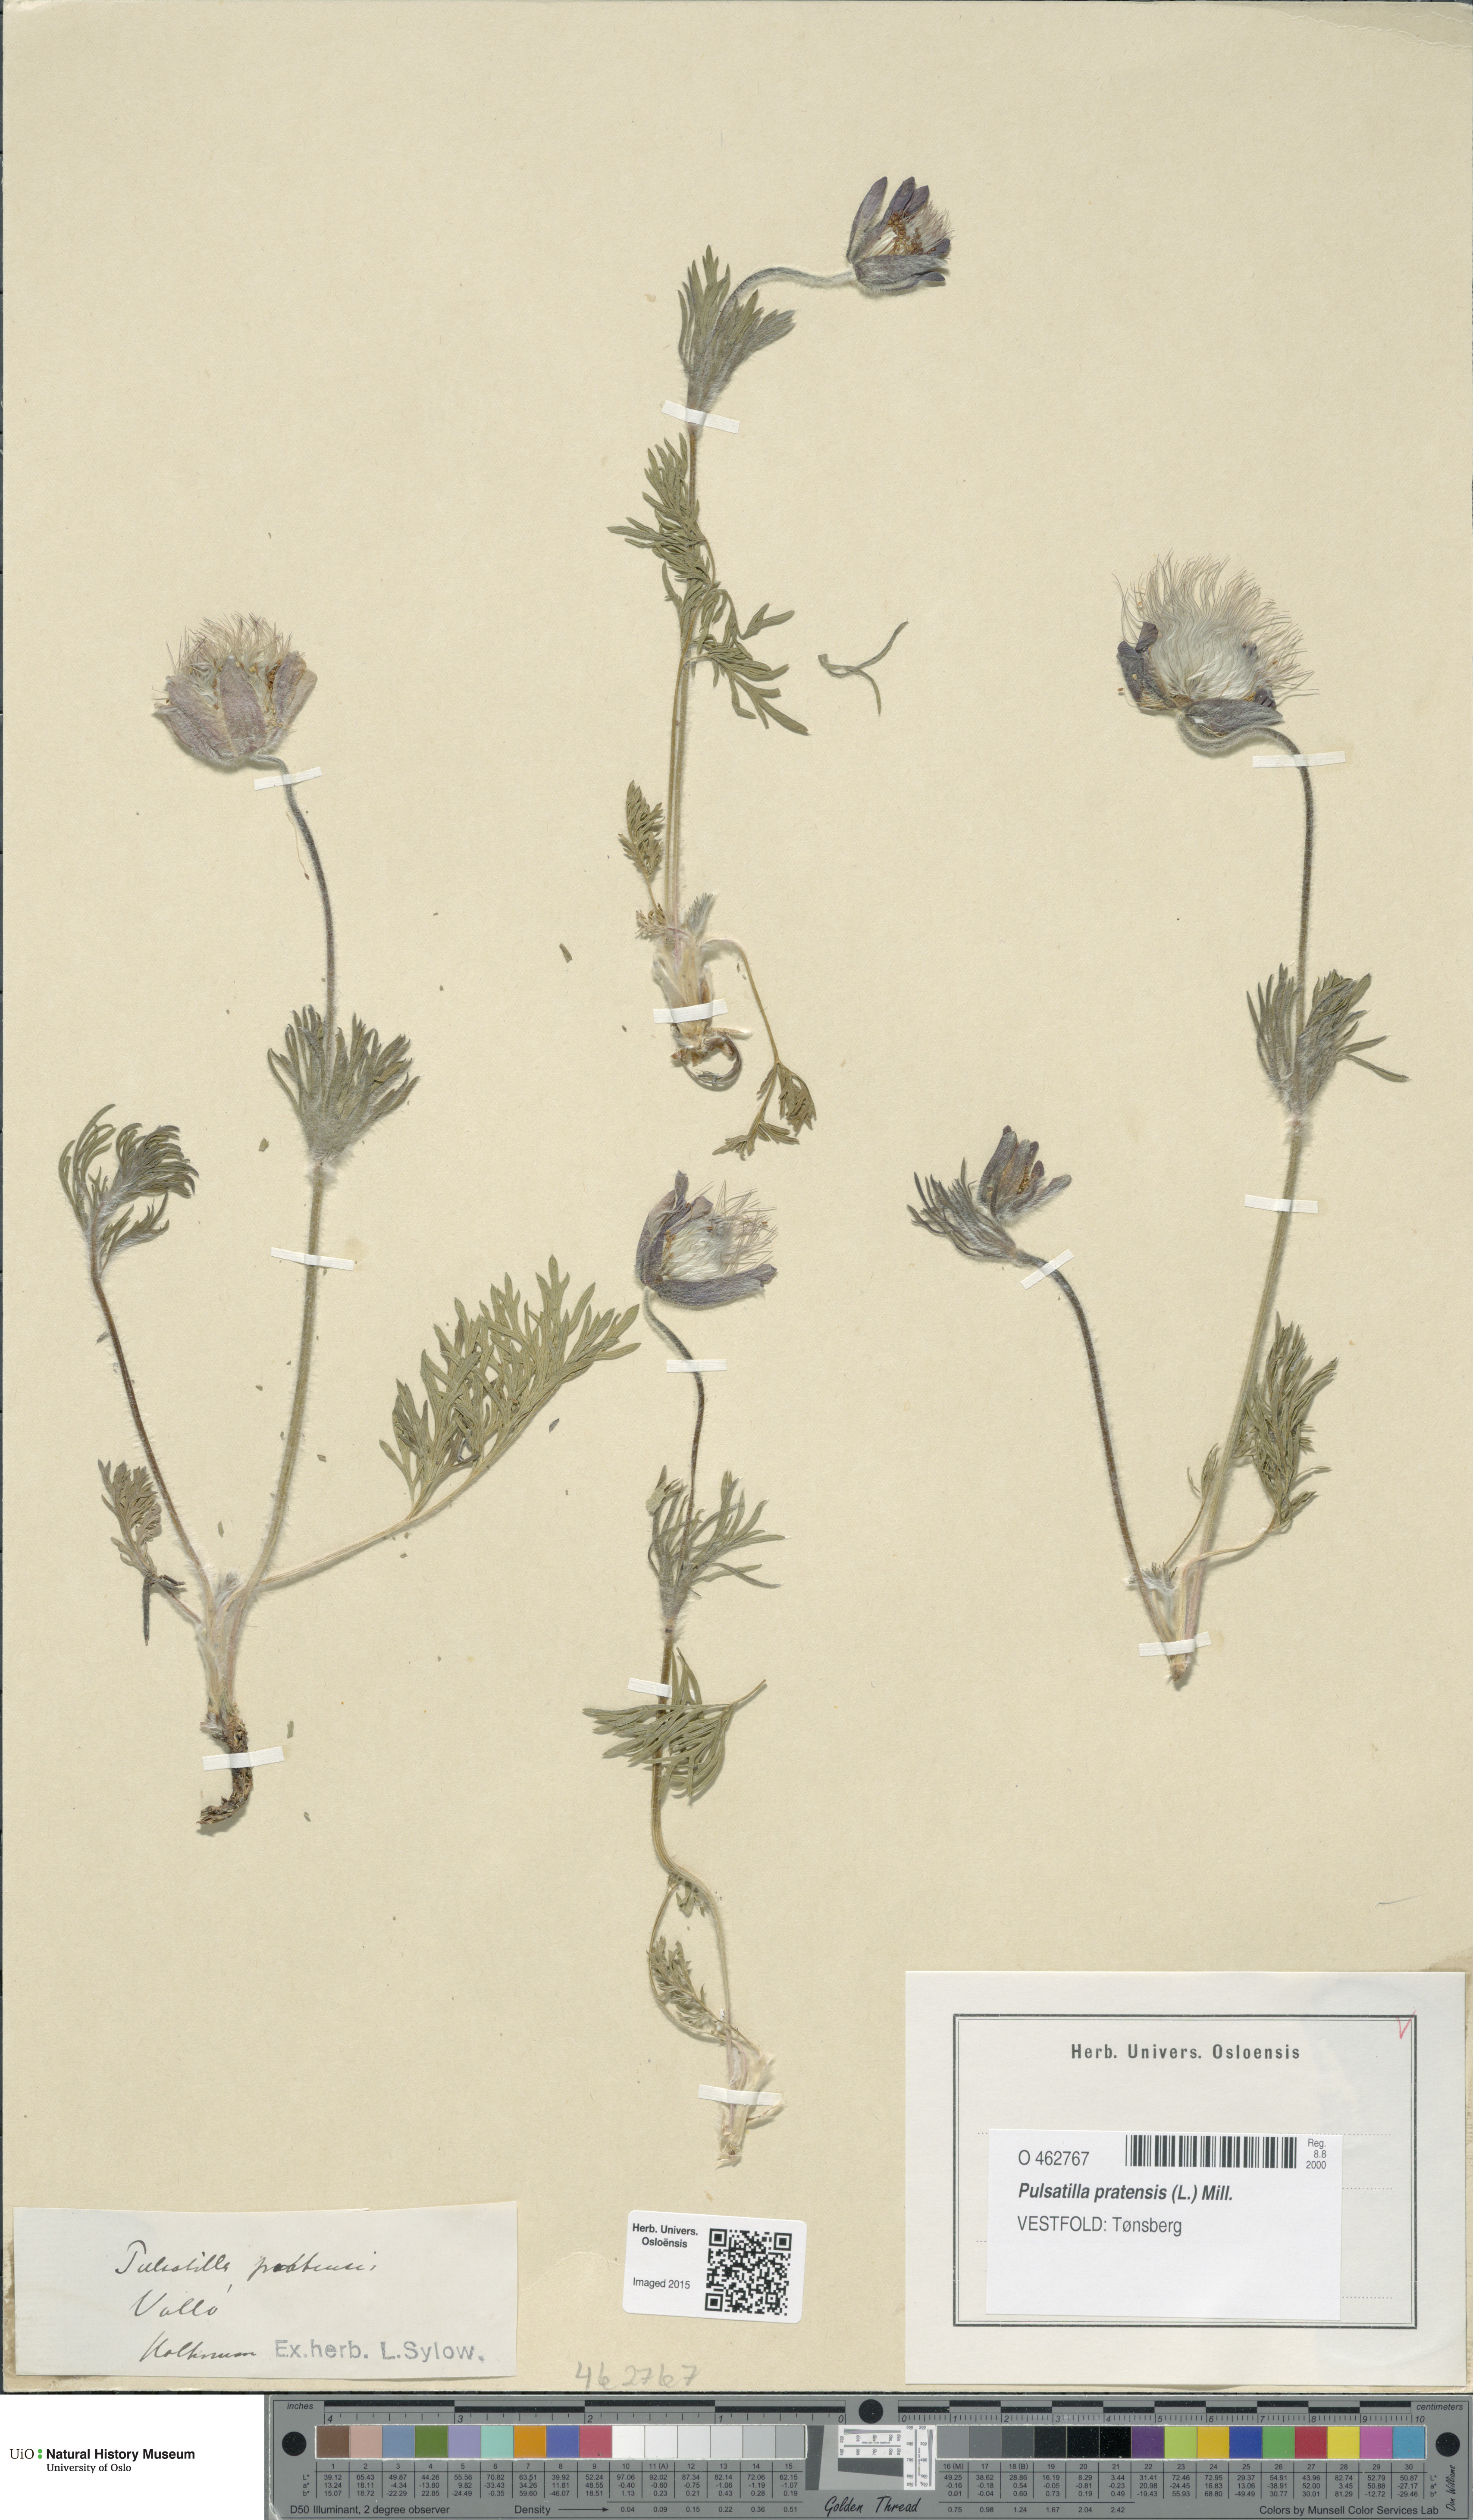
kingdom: Plantae
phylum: Tracheophyta
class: Magnoliopsida
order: Ranunculales
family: Ranunculaceae
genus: Pulsatilla
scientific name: Pulsatilla pratensis
